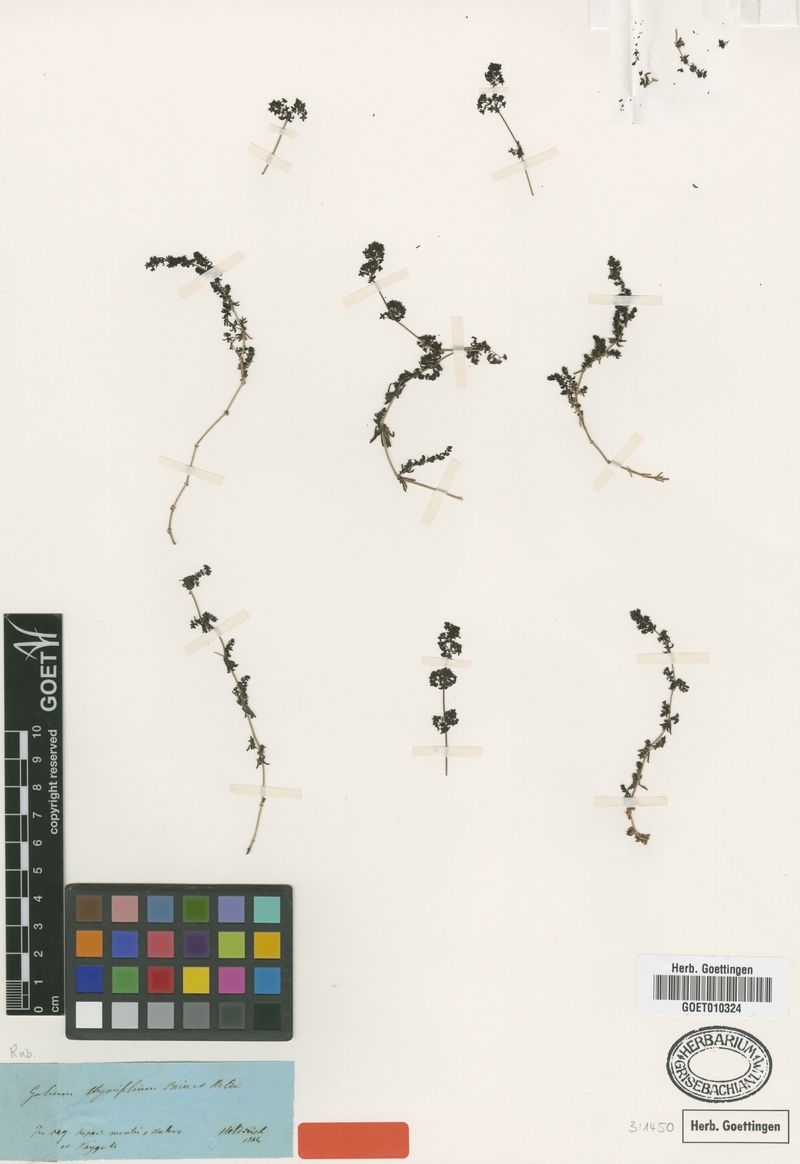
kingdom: Plantae
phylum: Tracheophyta
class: Magnoliopsida
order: Gentianales
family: Rubiaceae
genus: Galium
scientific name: Galium thymifolium
